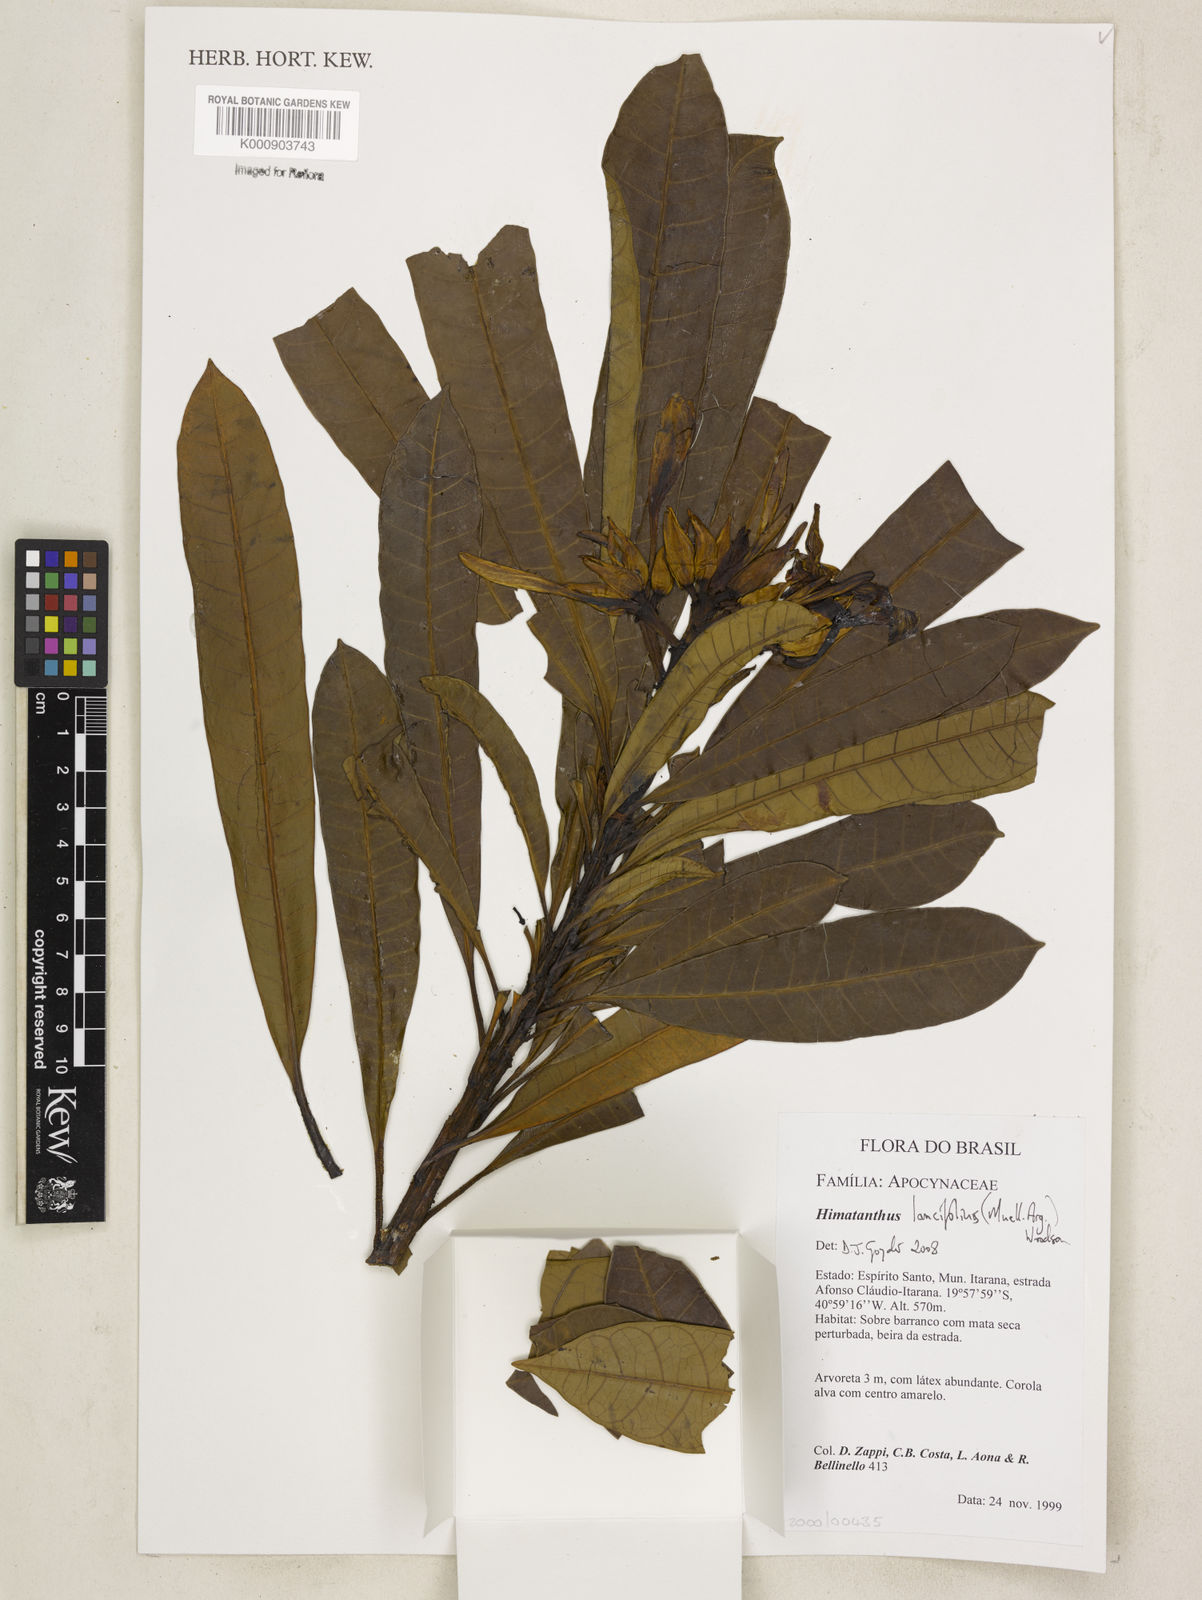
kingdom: Plantae
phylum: Tracheophyta
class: Magnoliopsida
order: Gentianales
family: Apocynaceae
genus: Himatanthus
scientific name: Himatanthus
